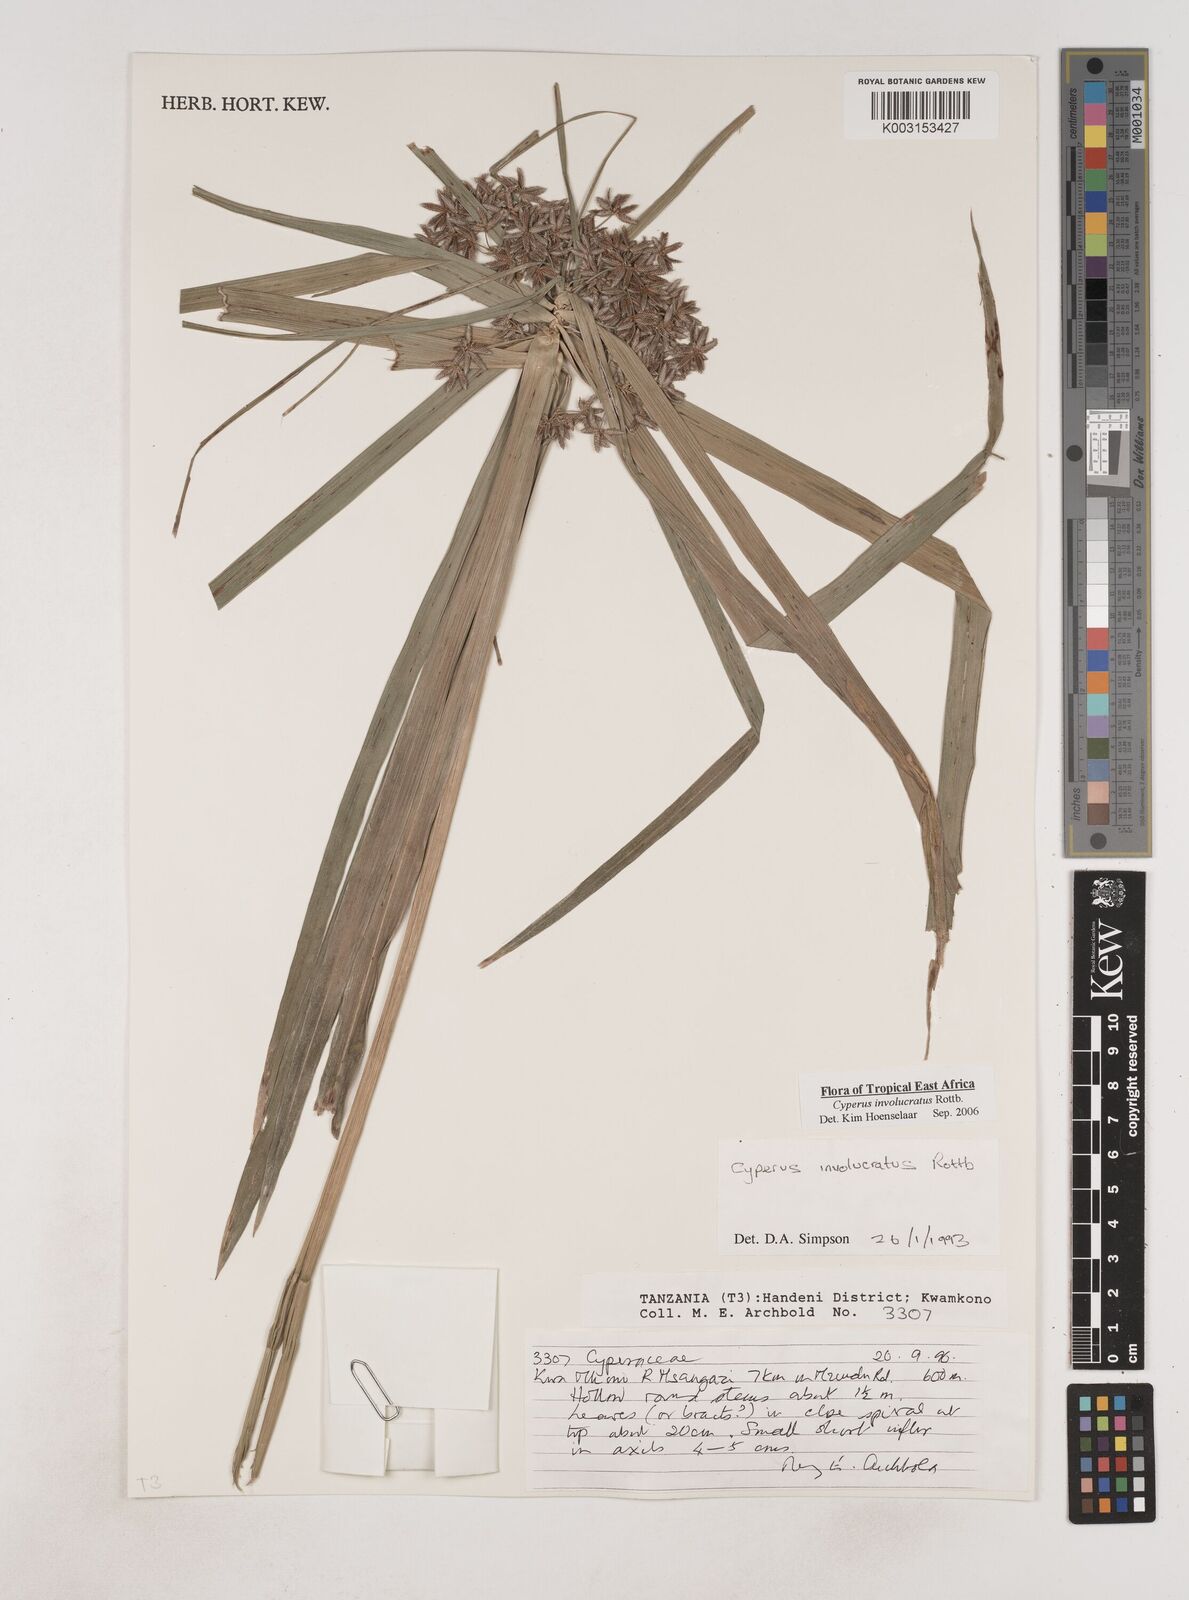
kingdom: Plantae
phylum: Tracheophyta
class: Liliopsida
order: Poales
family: Cyperaceae
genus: Cyperus
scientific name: Cyperus alternifolius
